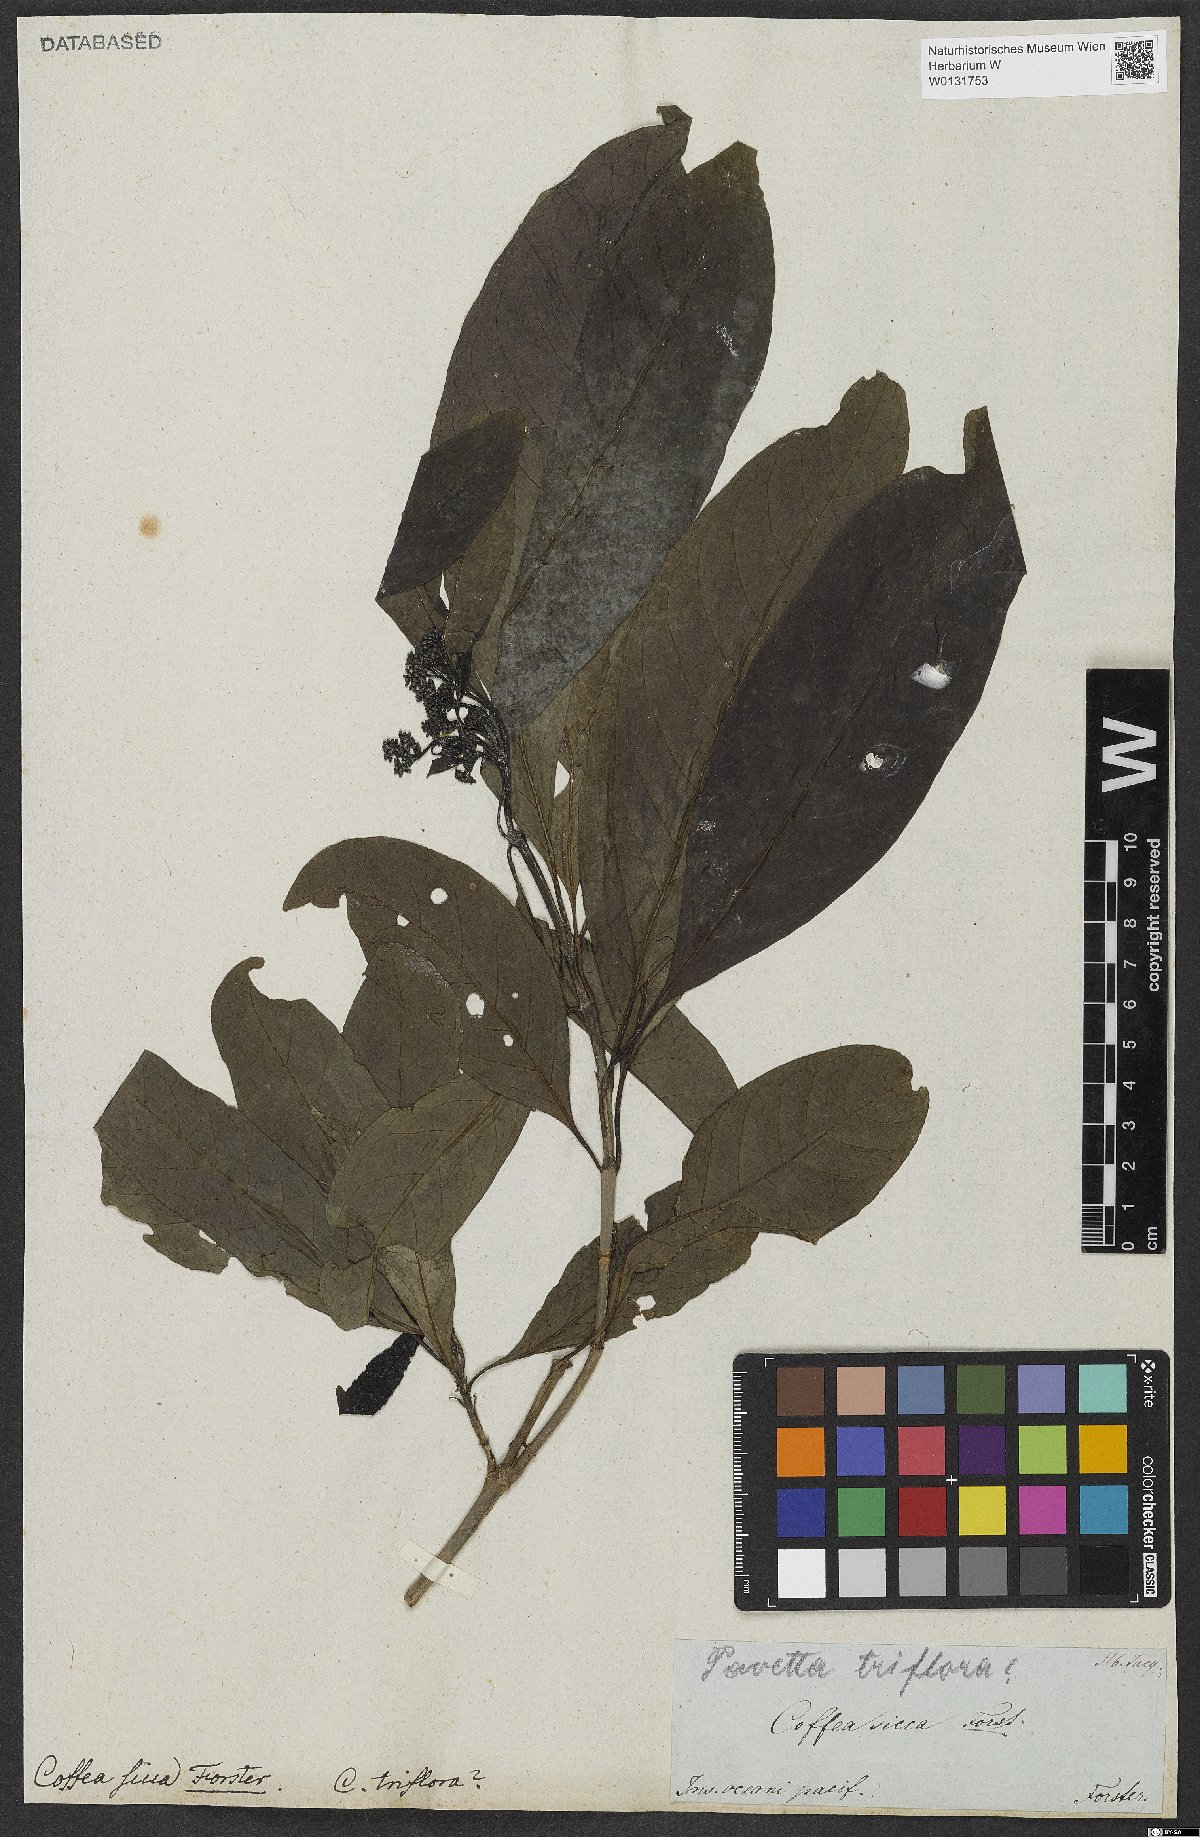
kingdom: Plantae
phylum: Tracheophyta
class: Magnoliopsida
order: Gentianales
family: Rubiaceae
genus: Psydrax
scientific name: Psydrax odoratus
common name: Alahe'e
